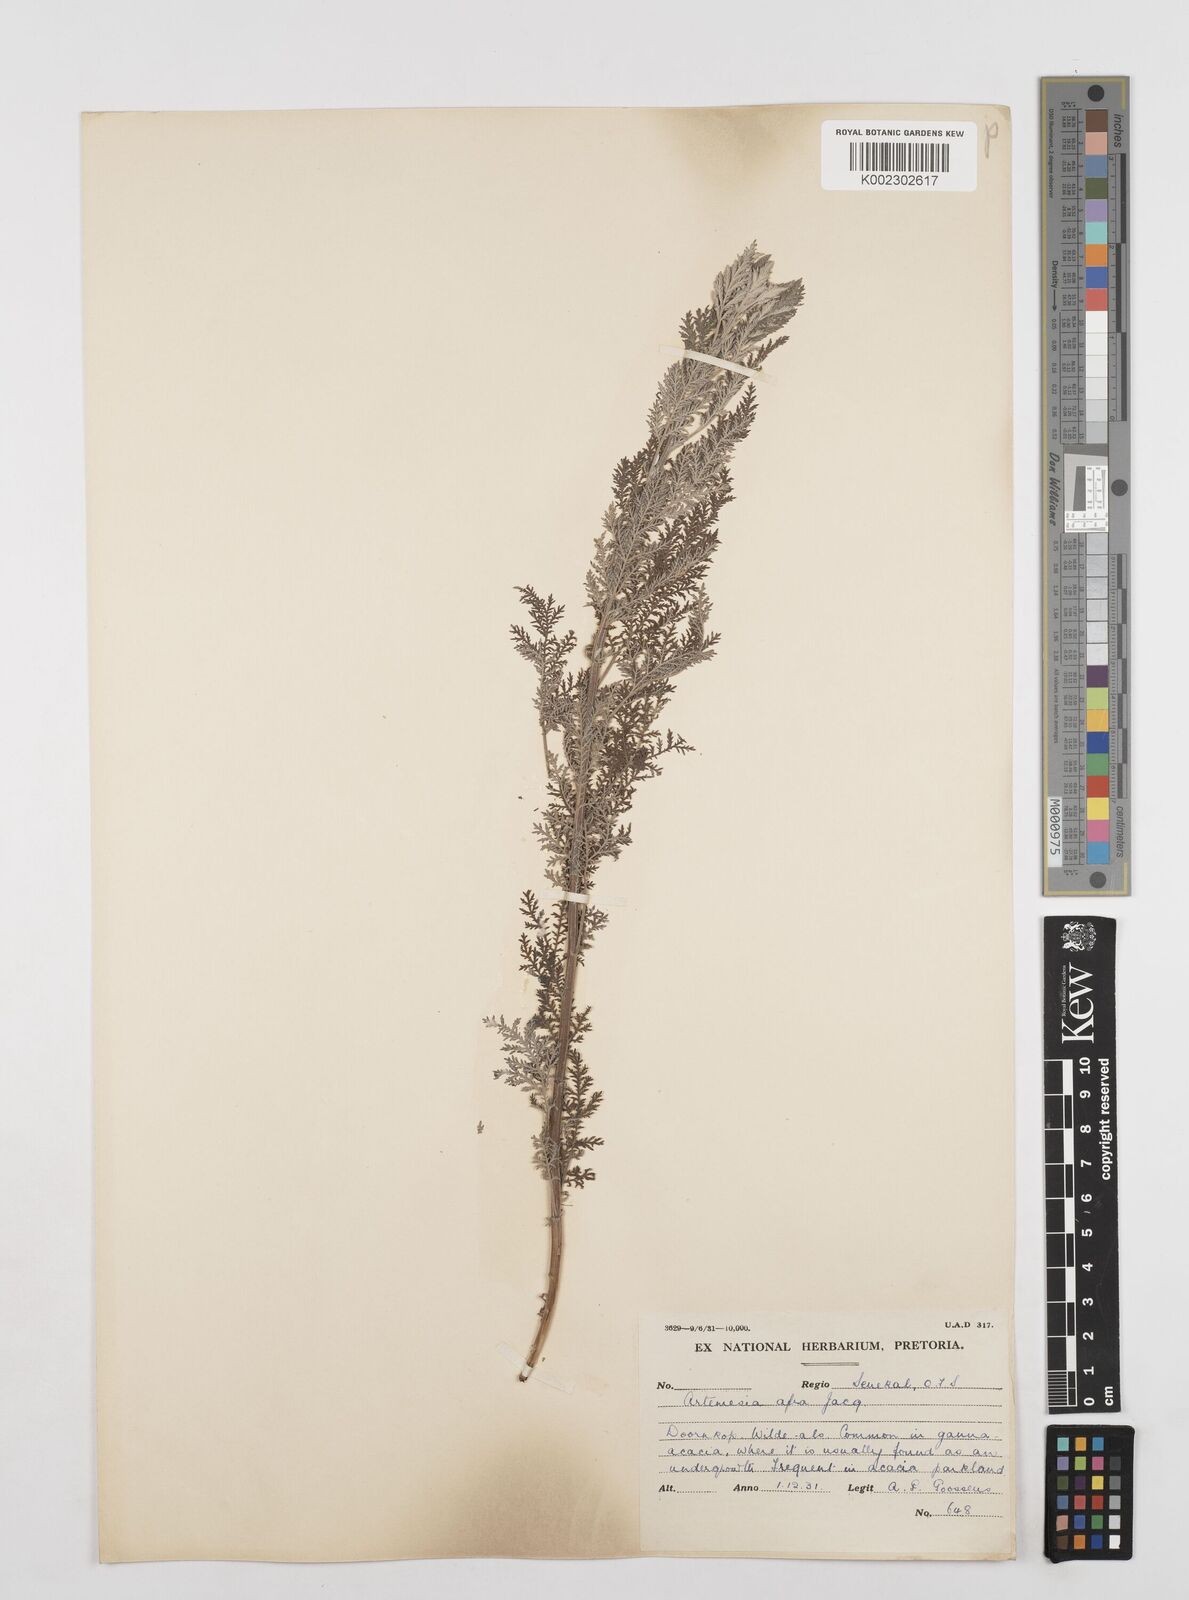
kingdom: Plantae
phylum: Tracheophyta
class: Magnoliopsida
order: Asterales
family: Asteraceae
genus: Artemisia
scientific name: Artemisia afra
